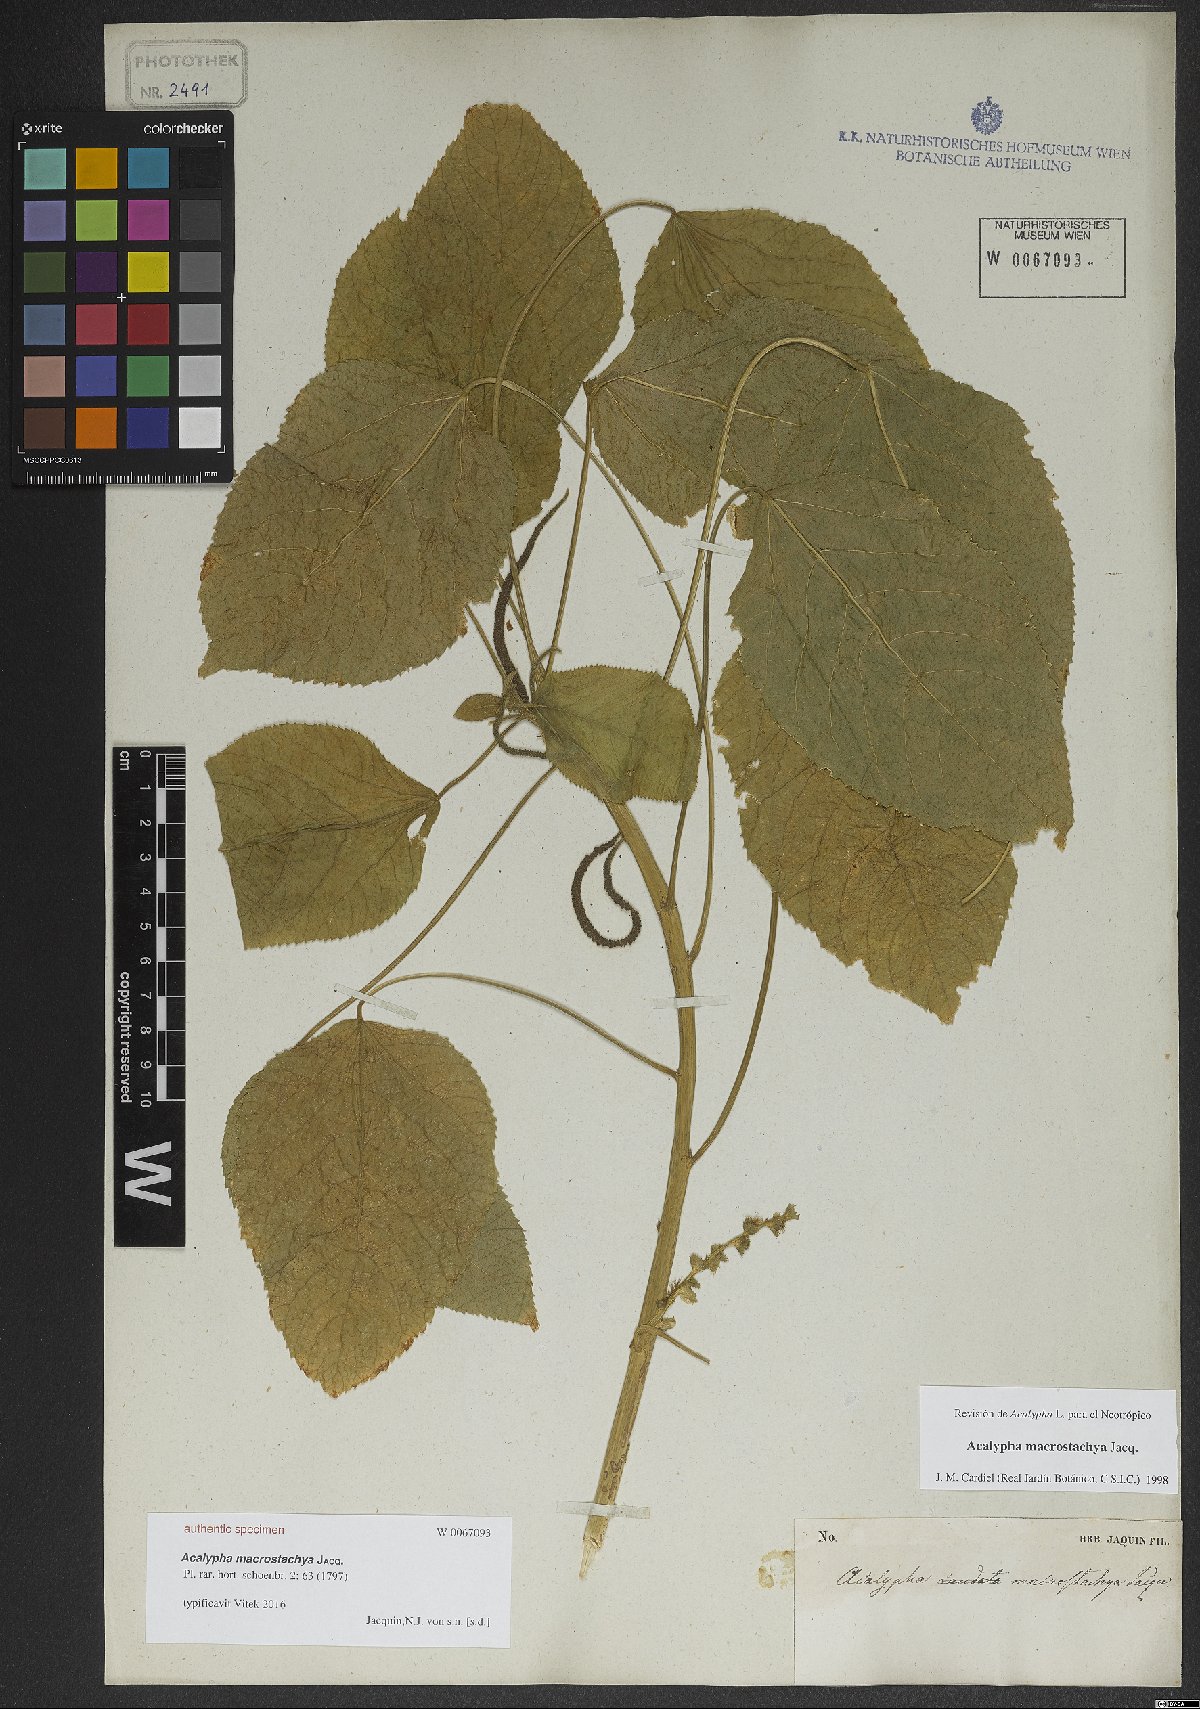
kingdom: Plantae
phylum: Tracheophyta
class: Magnoliopsida
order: Malpighiales
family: Euphorbiaceae
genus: Acalypha
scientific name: Acalypha macrostachya
